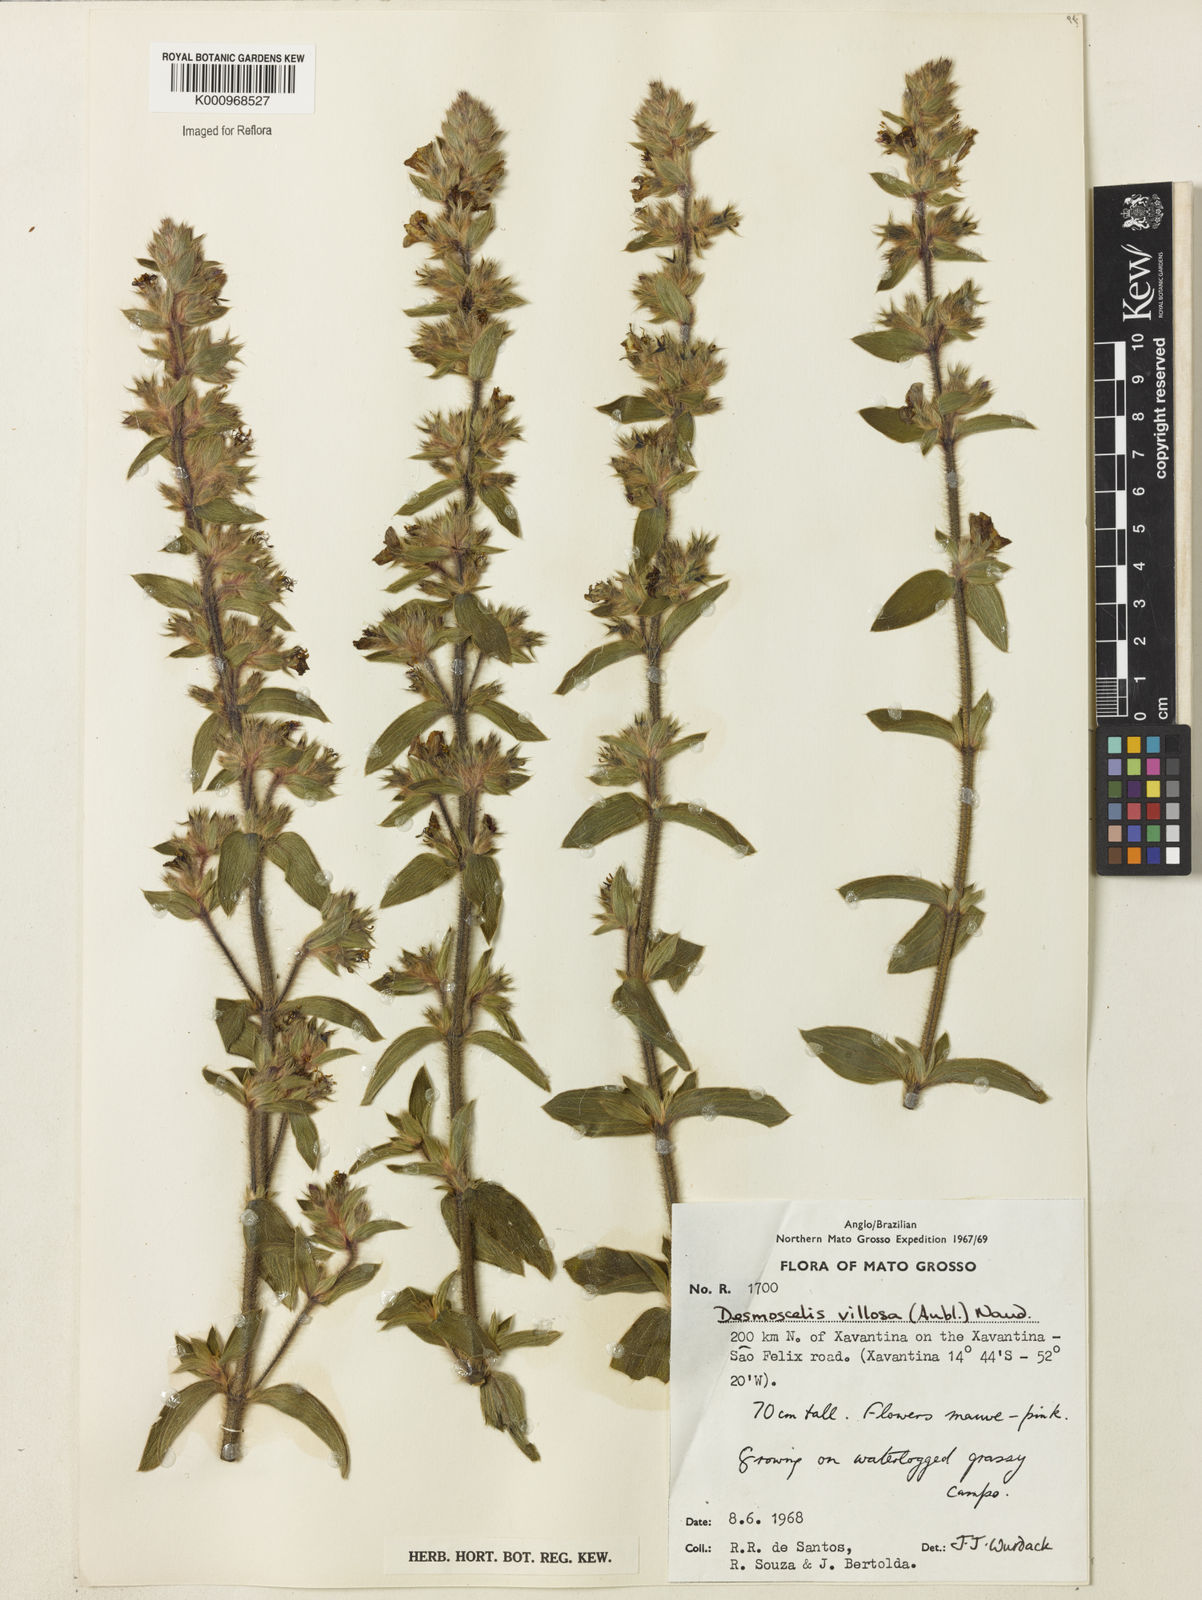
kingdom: Plantae
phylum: Tracheophyta
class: Magnoliopsida
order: Myrtales
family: Melastomataceae
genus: Desmoscelis
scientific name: Desmoscelis villosa
